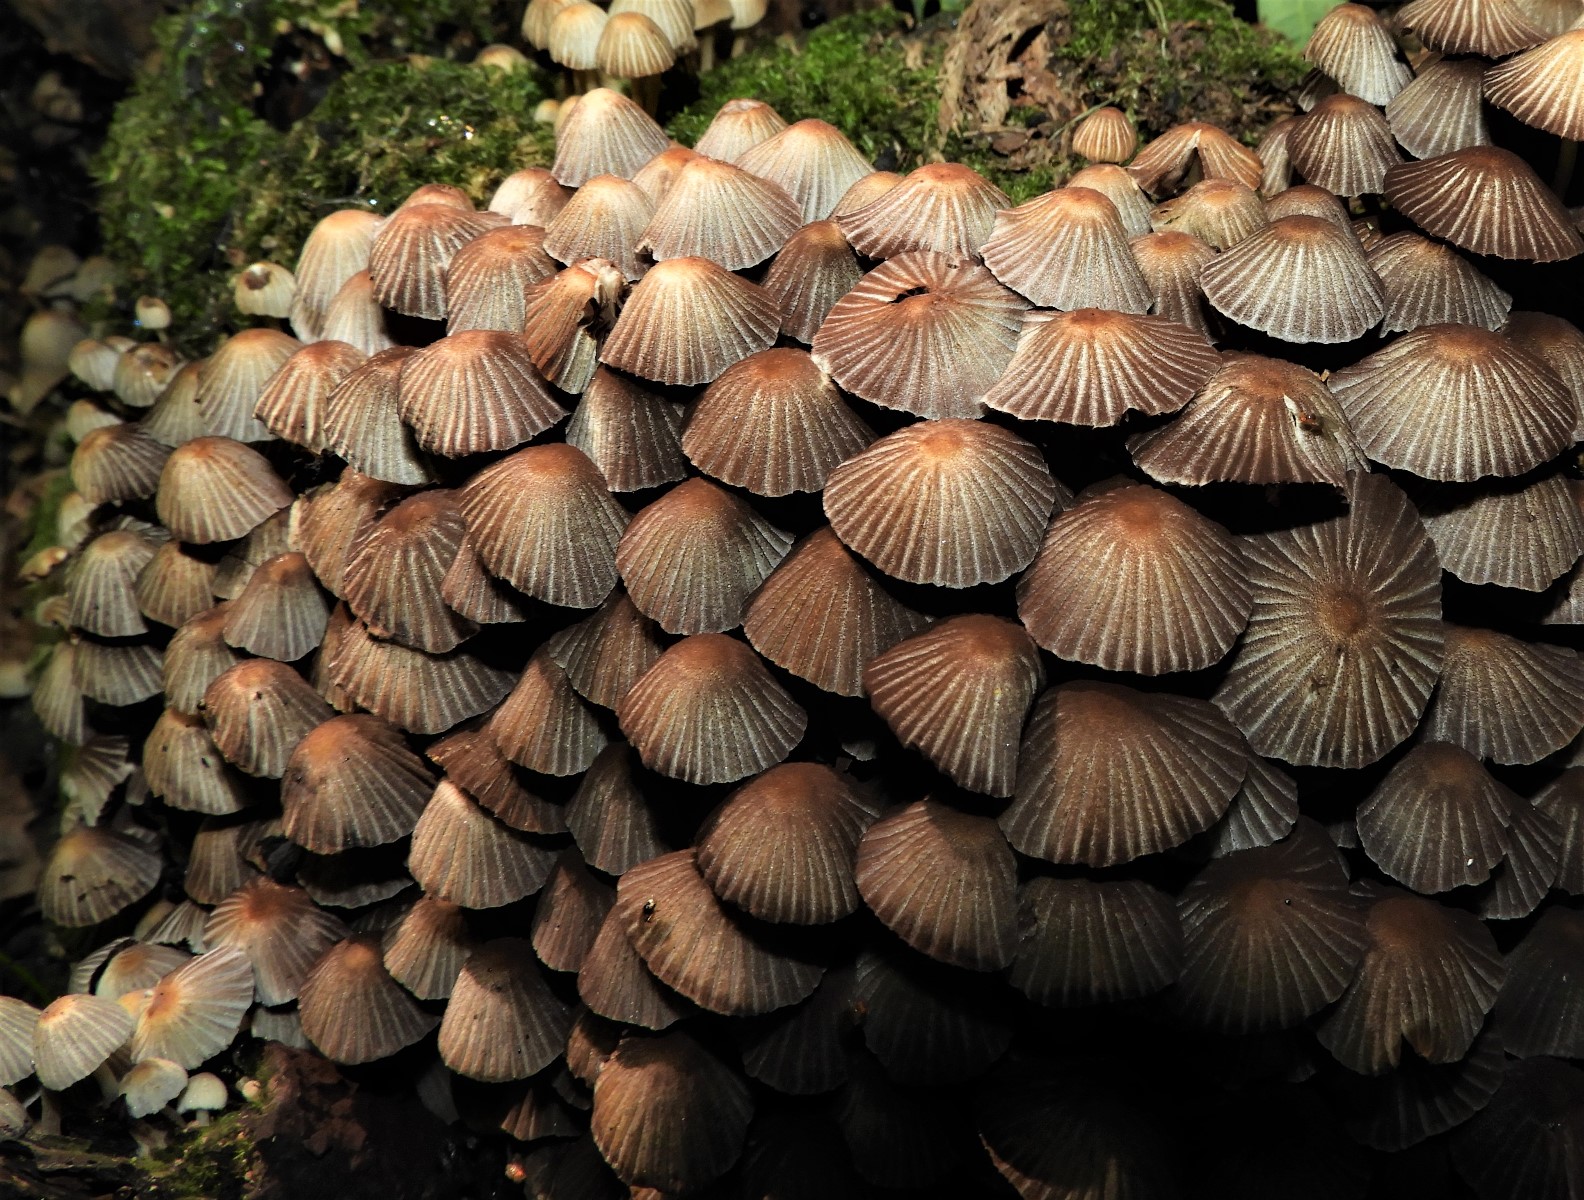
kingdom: Fungi
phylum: Basidiomycota
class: Agaricomycetes
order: Agaricales
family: Psathyrellaceae
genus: Coprinellus
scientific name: Coprinellus disseminatus
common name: bredsået blækhat
